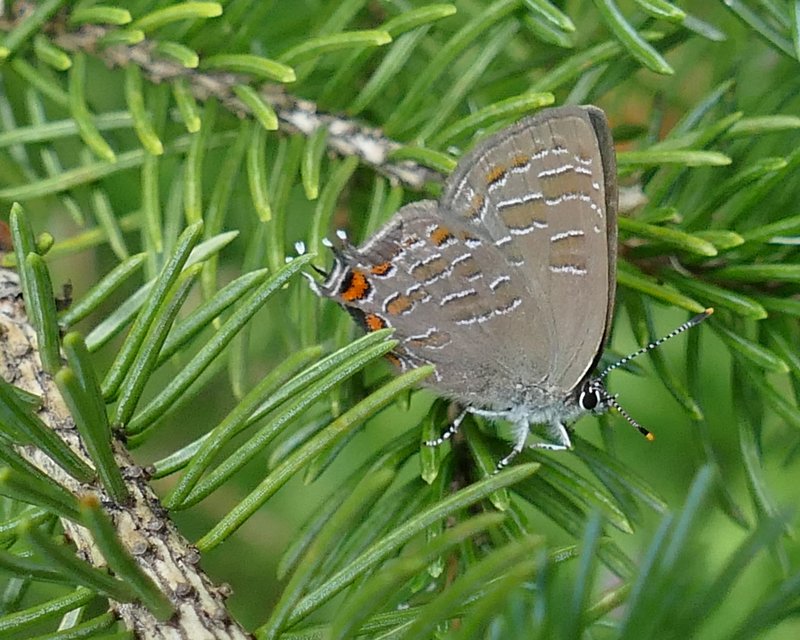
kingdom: Animalia
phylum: Arthropoda
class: Insecta
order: Lepidoptera
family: Lycaenidae
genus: Satyrium
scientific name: Satyrium liparops
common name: Striped Hairstreak
